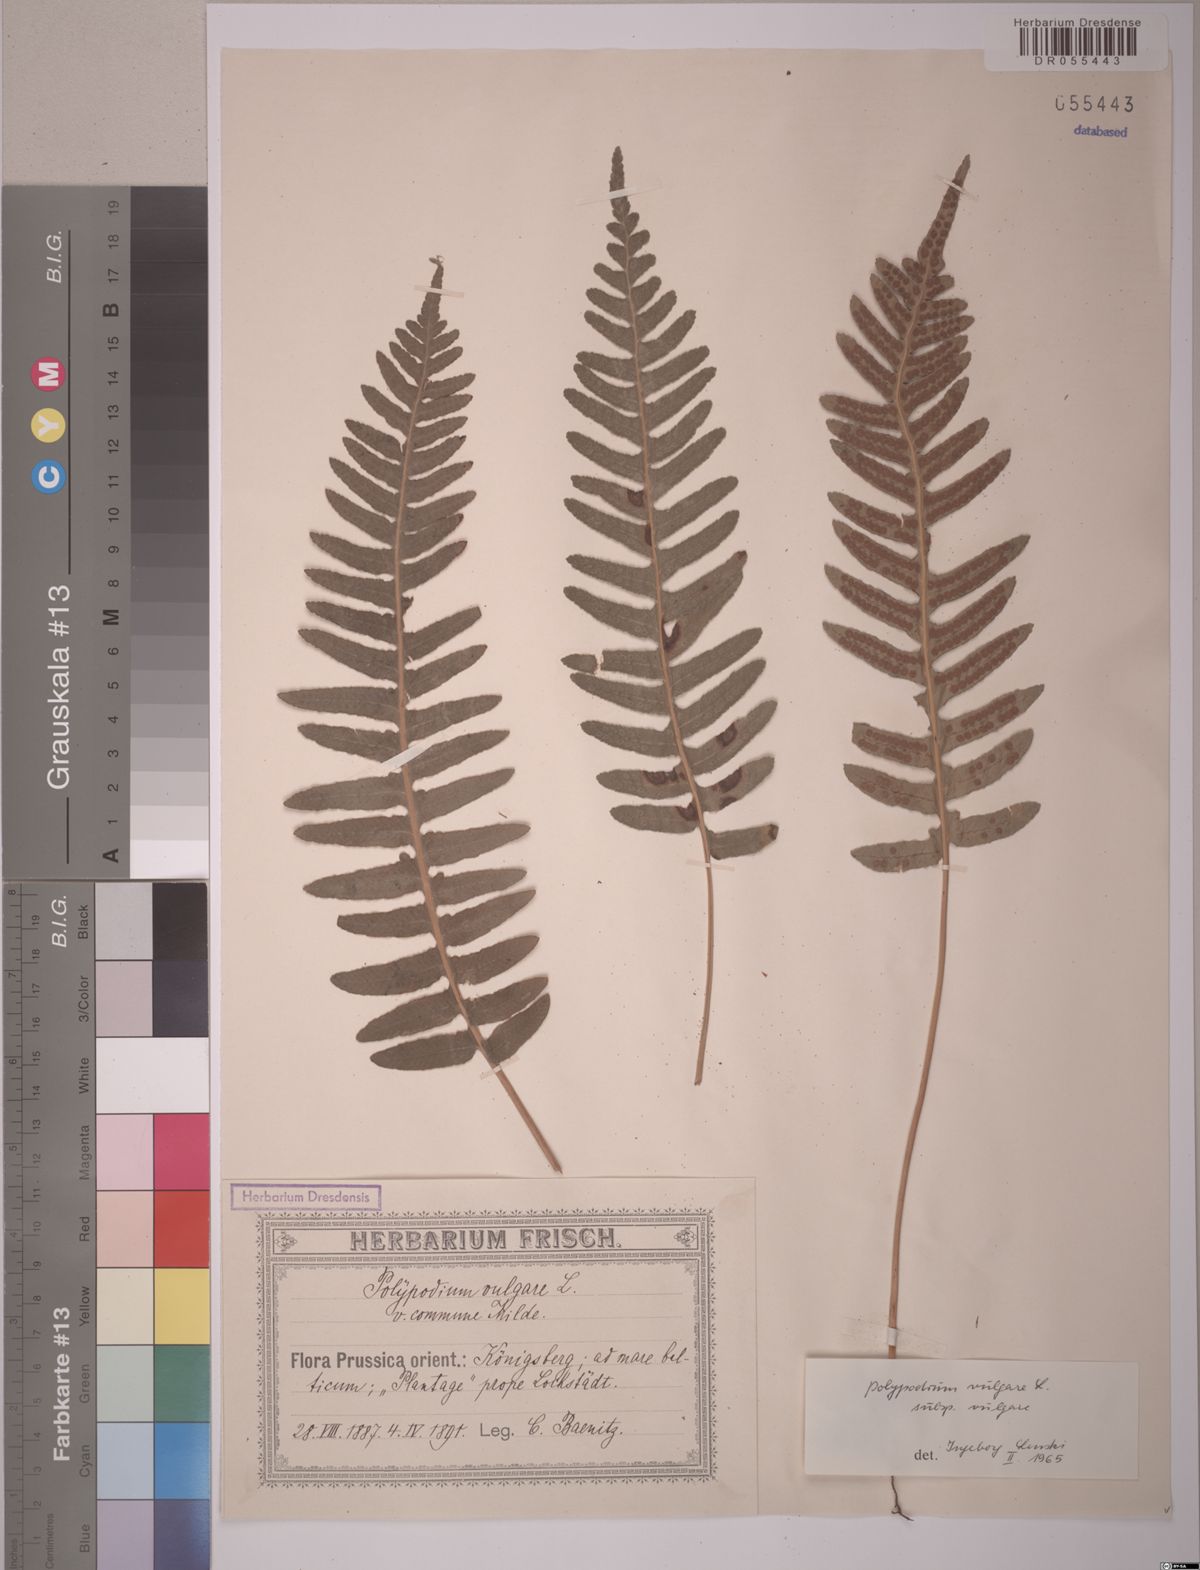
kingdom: Plantae
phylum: Tracheophyta
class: Polypodiopsida
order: Polypodiales
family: Polypodiaceae
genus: Polypodium
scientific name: Polypodium vulgare
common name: Common polypody
